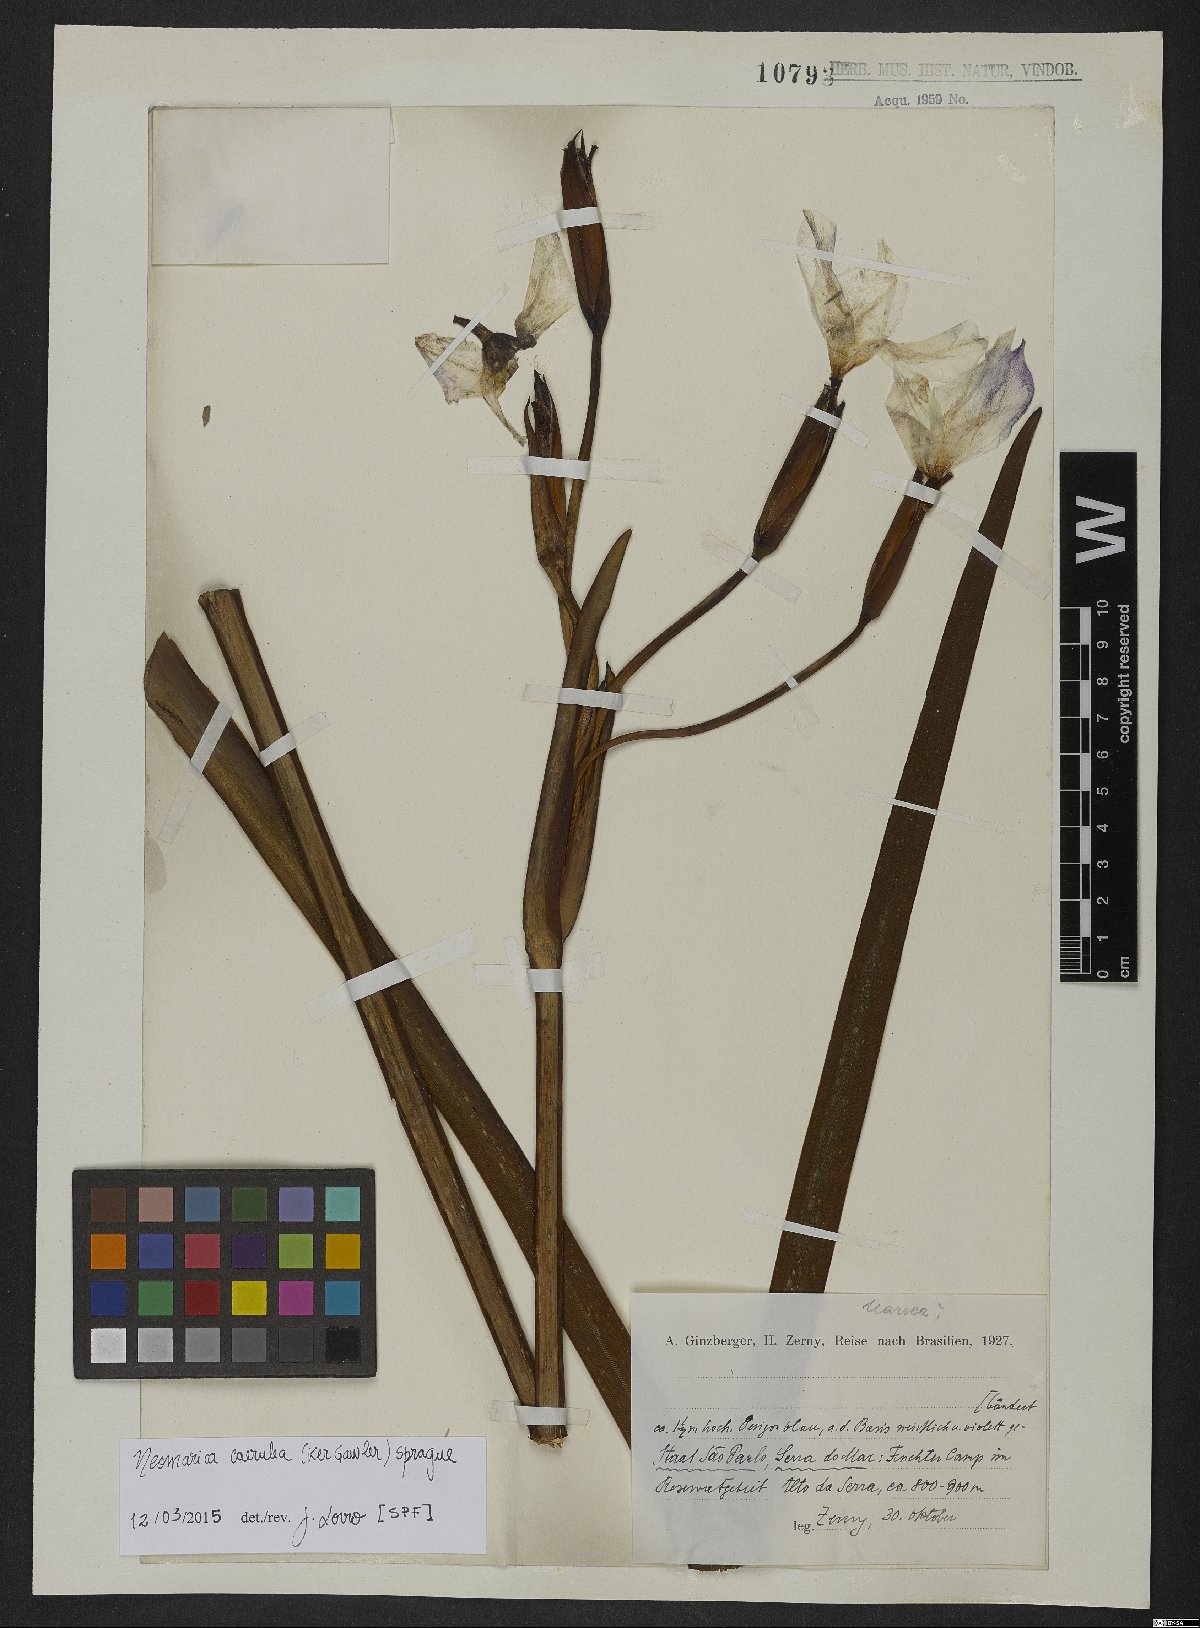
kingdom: Plantae
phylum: Tracheophyta
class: Liliopsida
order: Asparagales
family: Iridaceae
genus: Trimezia
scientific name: Trimezia coerulea
